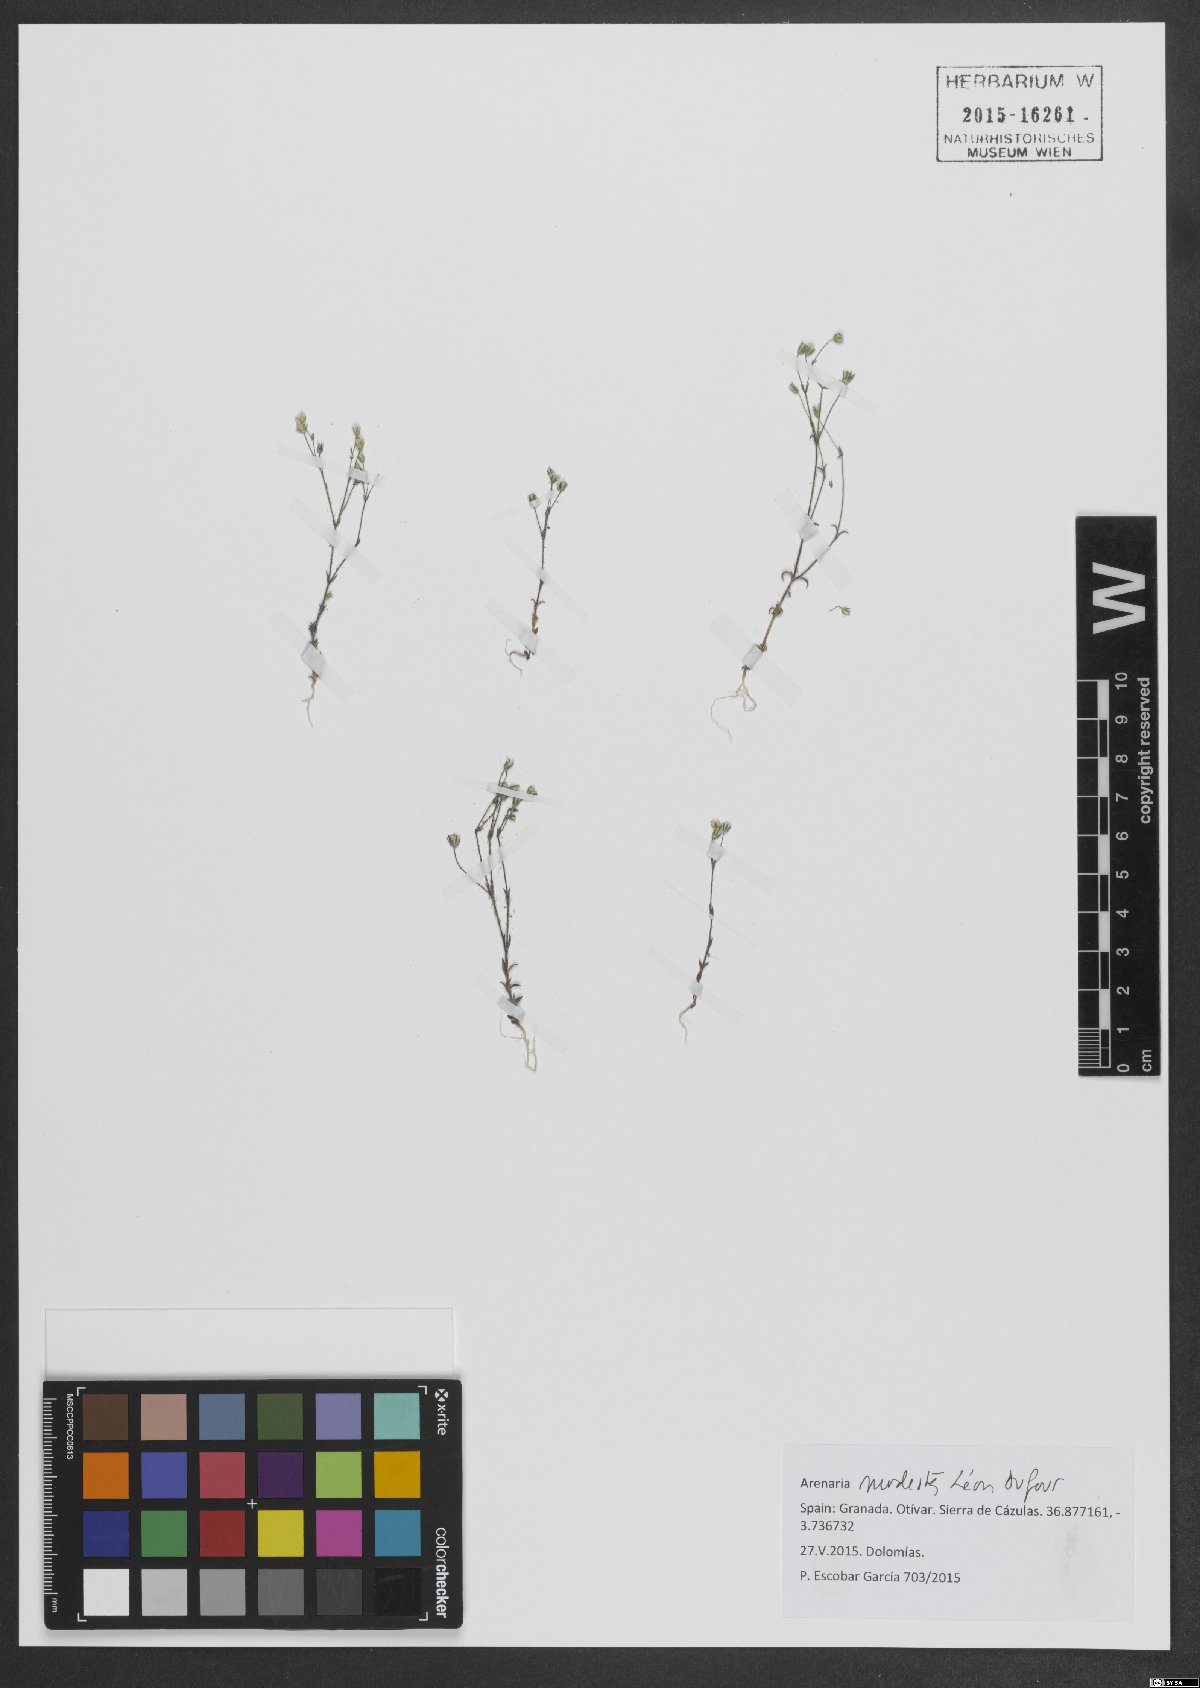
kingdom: Plantae
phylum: Tracheophyta
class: Magnoliopsida
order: Caryophyllales
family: Caryophyllaceae
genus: Arenaria
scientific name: Arenaria modesta
